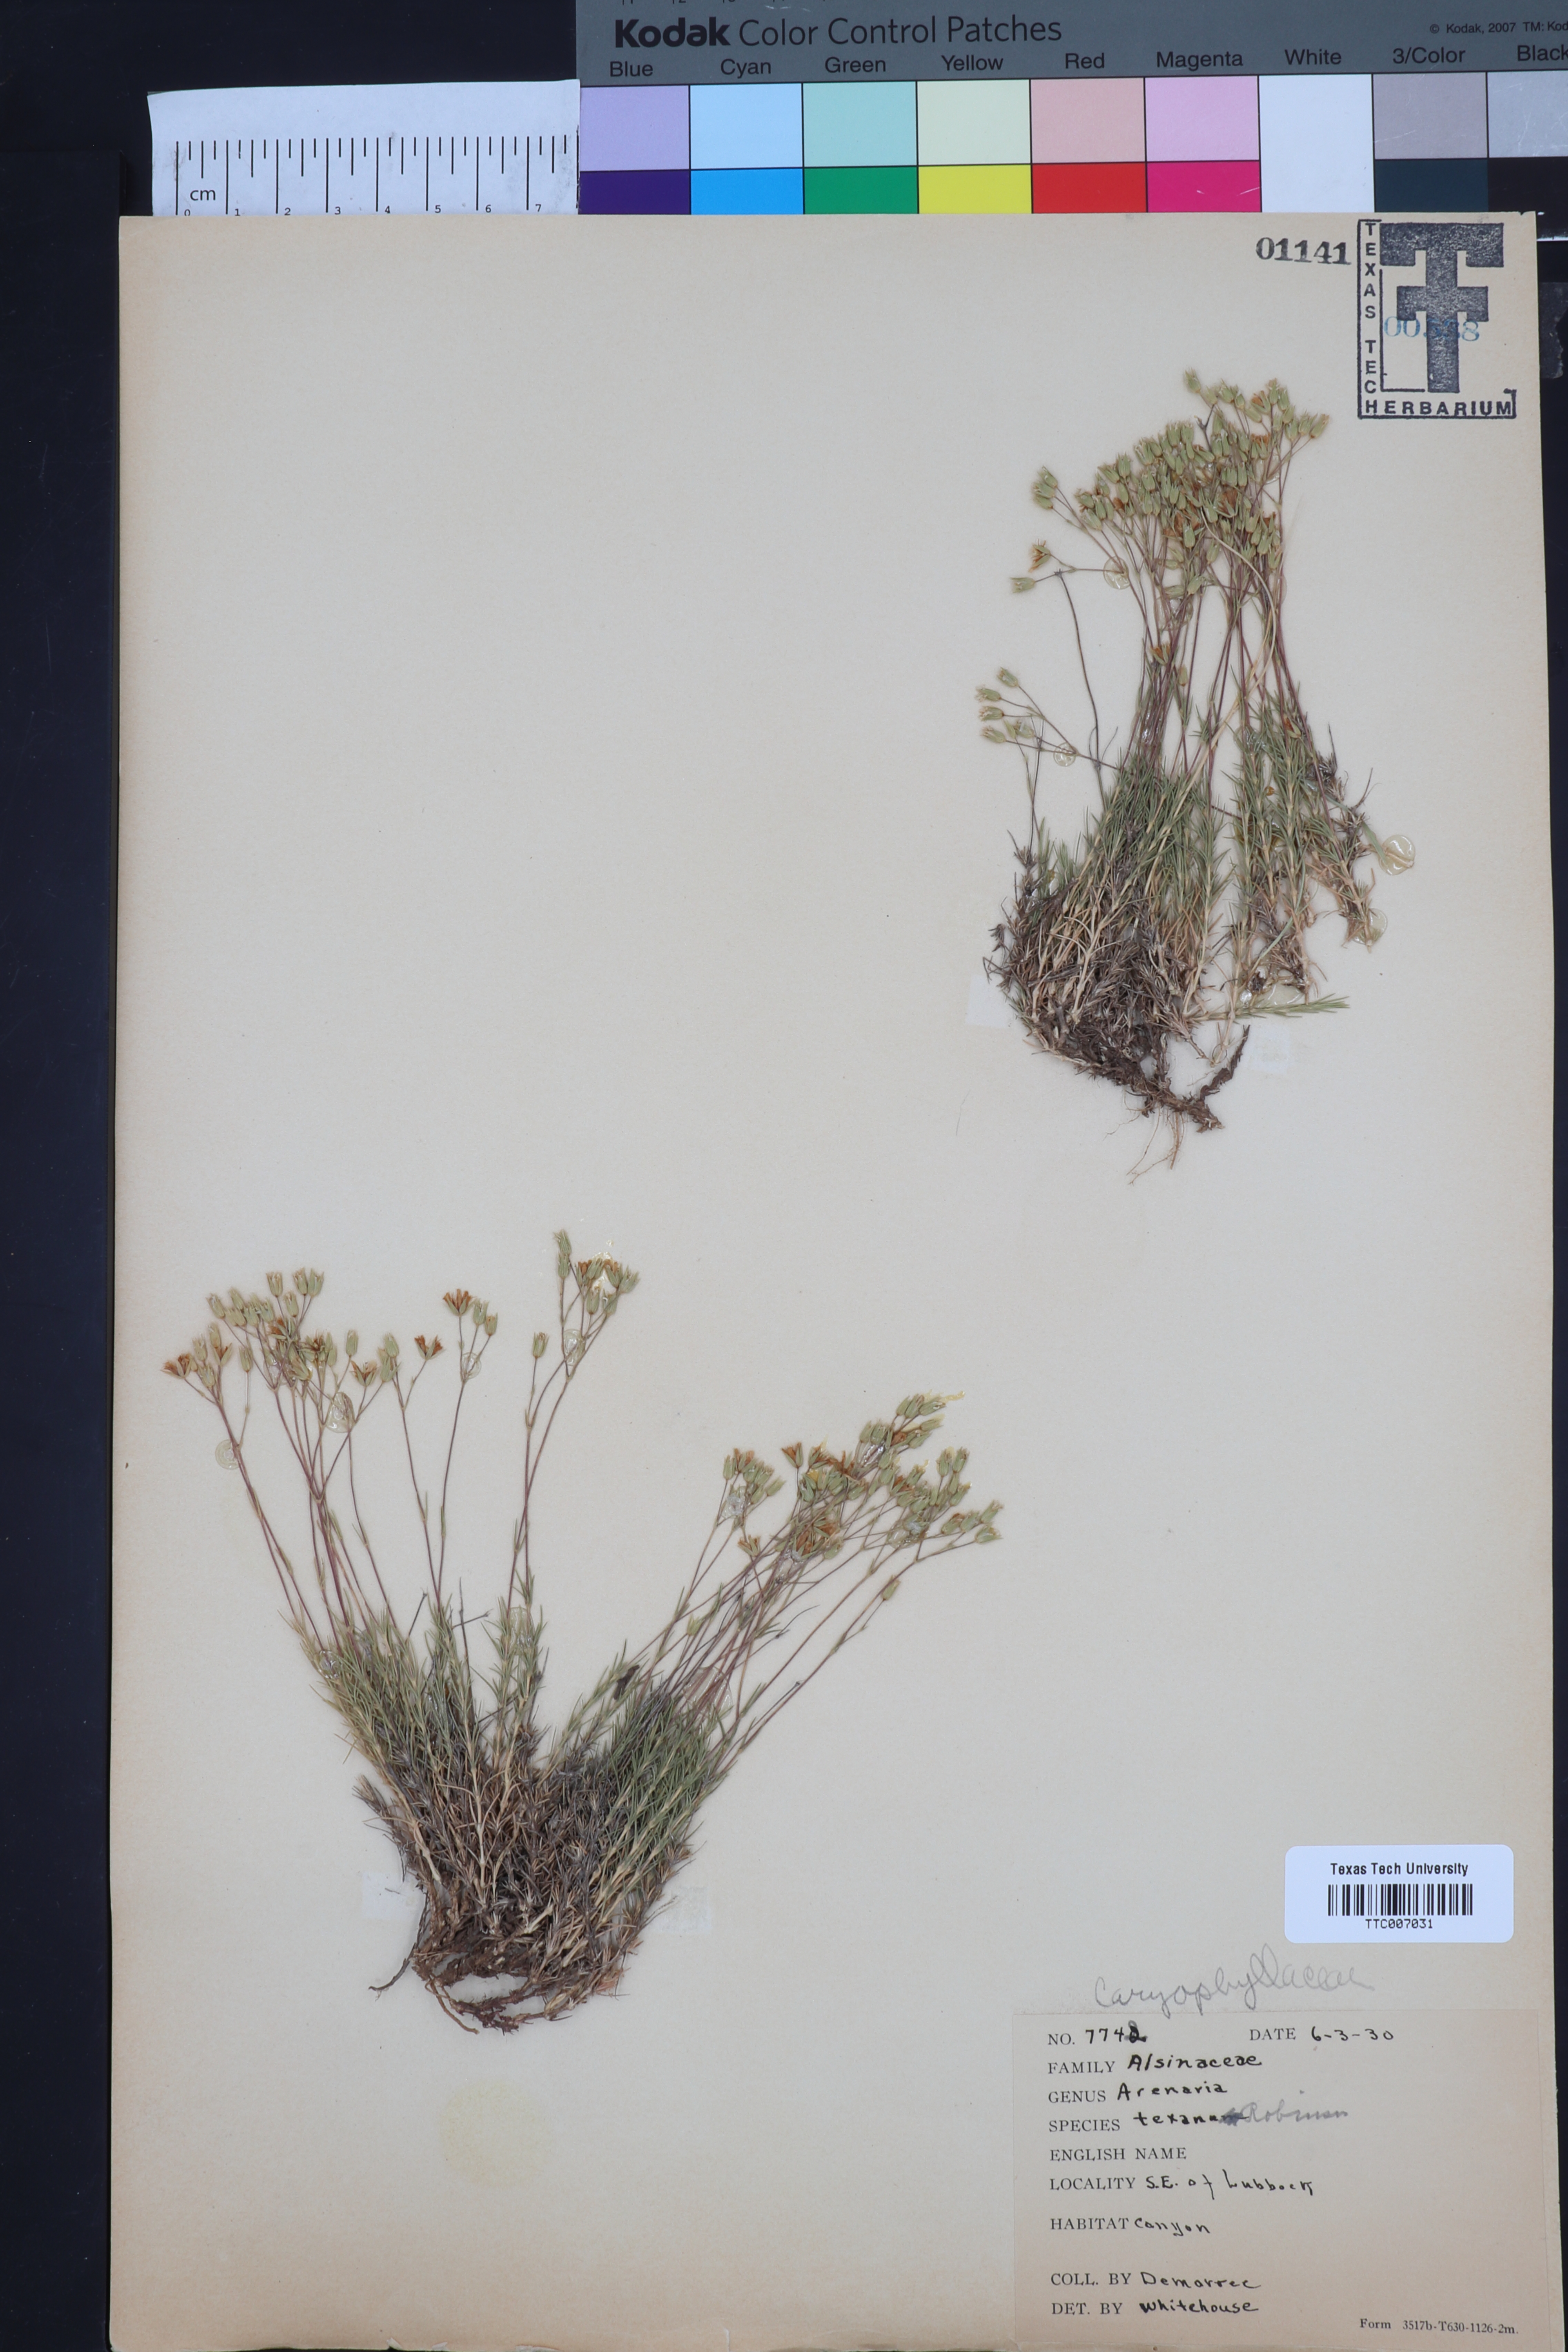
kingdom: Plantae
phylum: Tracheophyta
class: Magnoliopsida
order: Caryophyllales
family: Caryophyllaceae
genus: Sabulina
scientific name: Sabulina texana
